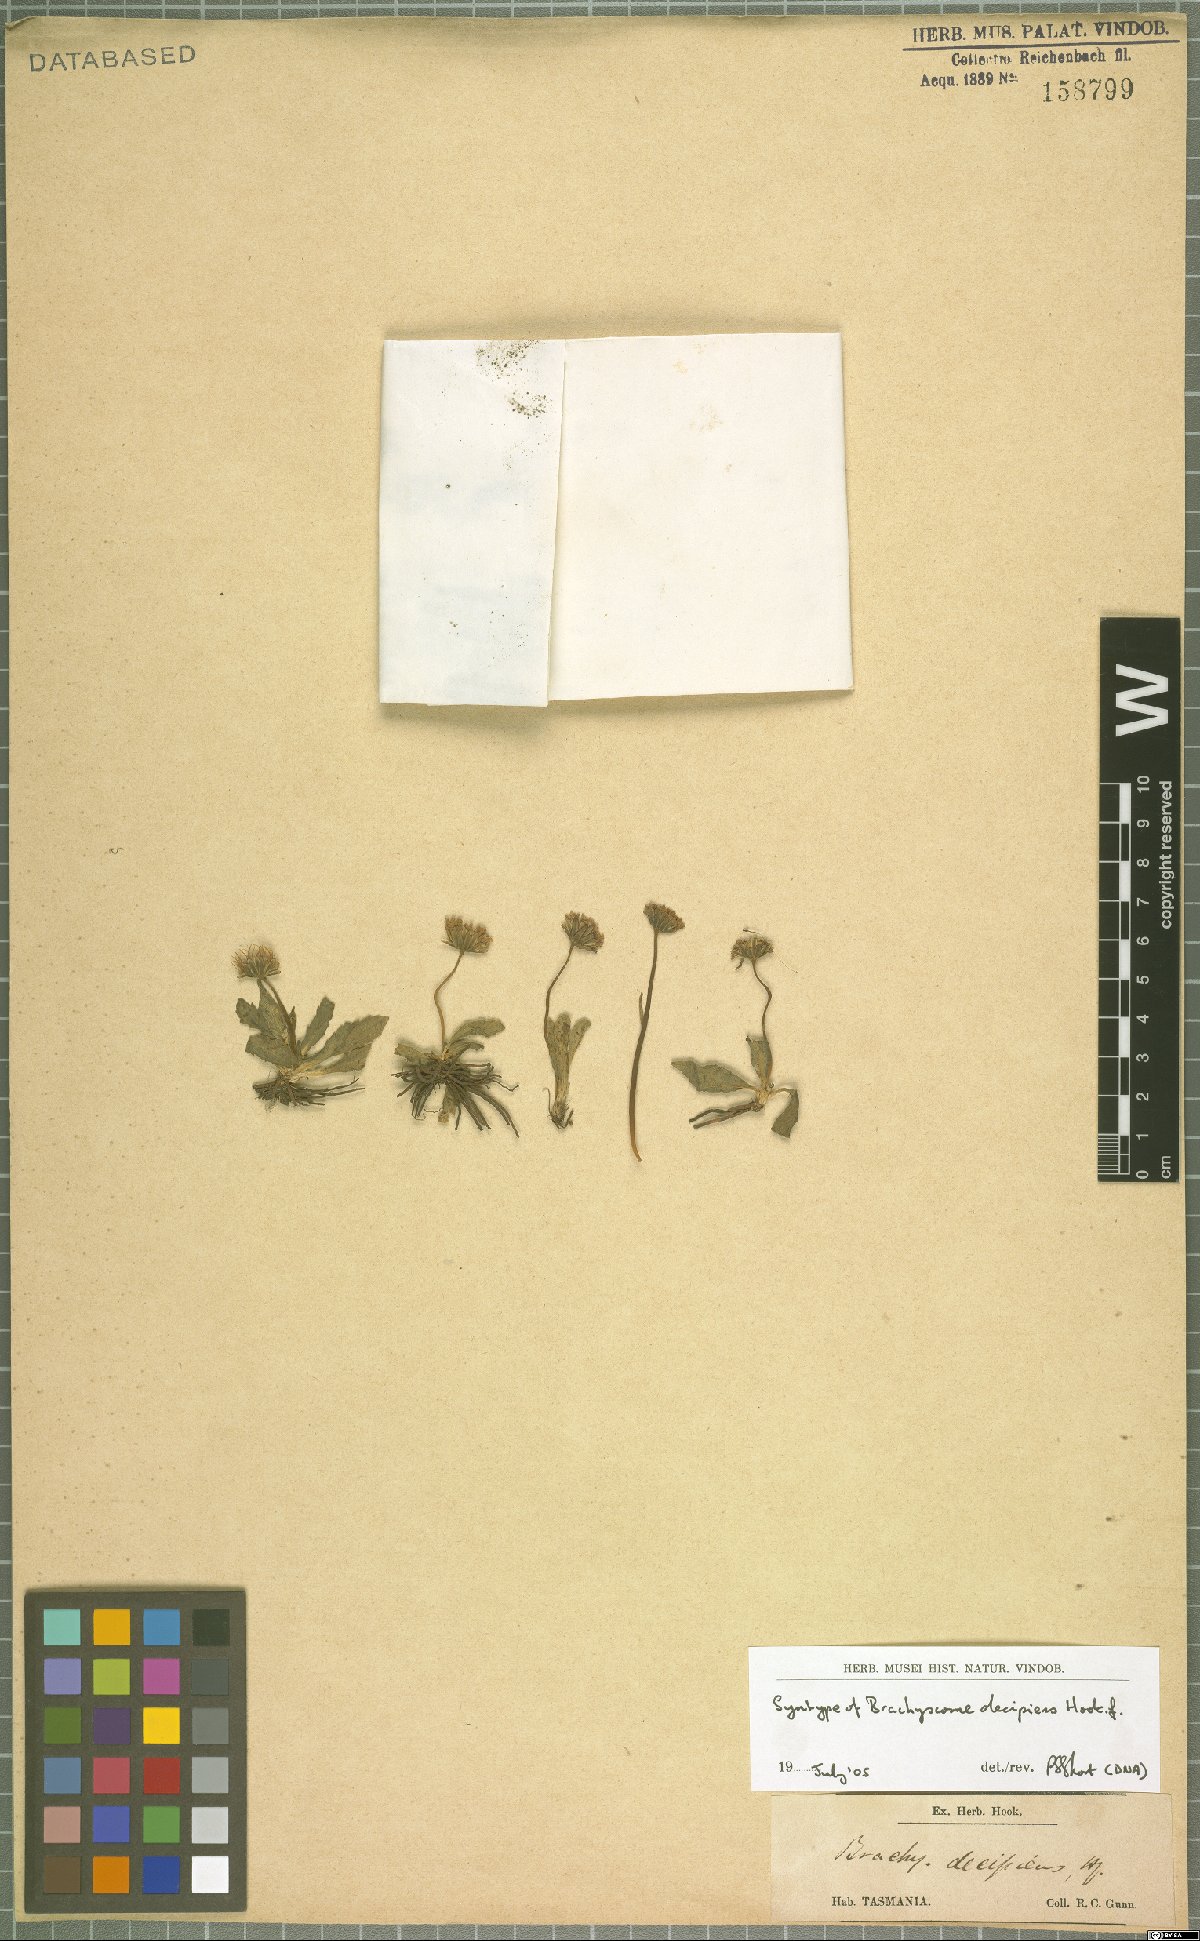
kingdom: Plantae
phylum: Tracheophyta
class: Magnoliopsida
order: Asterales
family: Asteraceae
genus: Brachyscome
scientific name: Brachyscome decipiens
